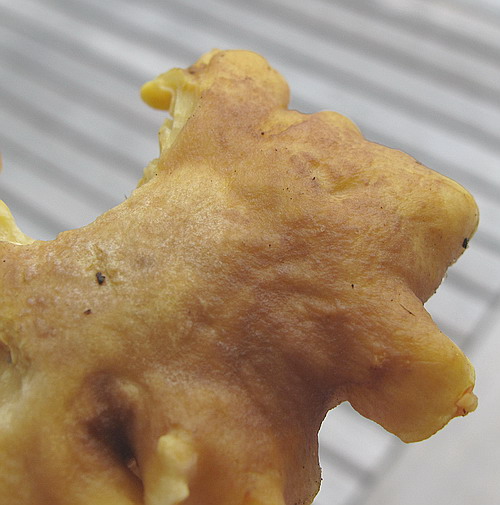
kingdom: Fungi
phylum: Basidiomycota
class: Agaricomycetes
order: Cantharellales
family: Hydnaceae
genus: Cantharellus
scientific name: Cantharellus amethysteus
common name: ametyst-kantarel
